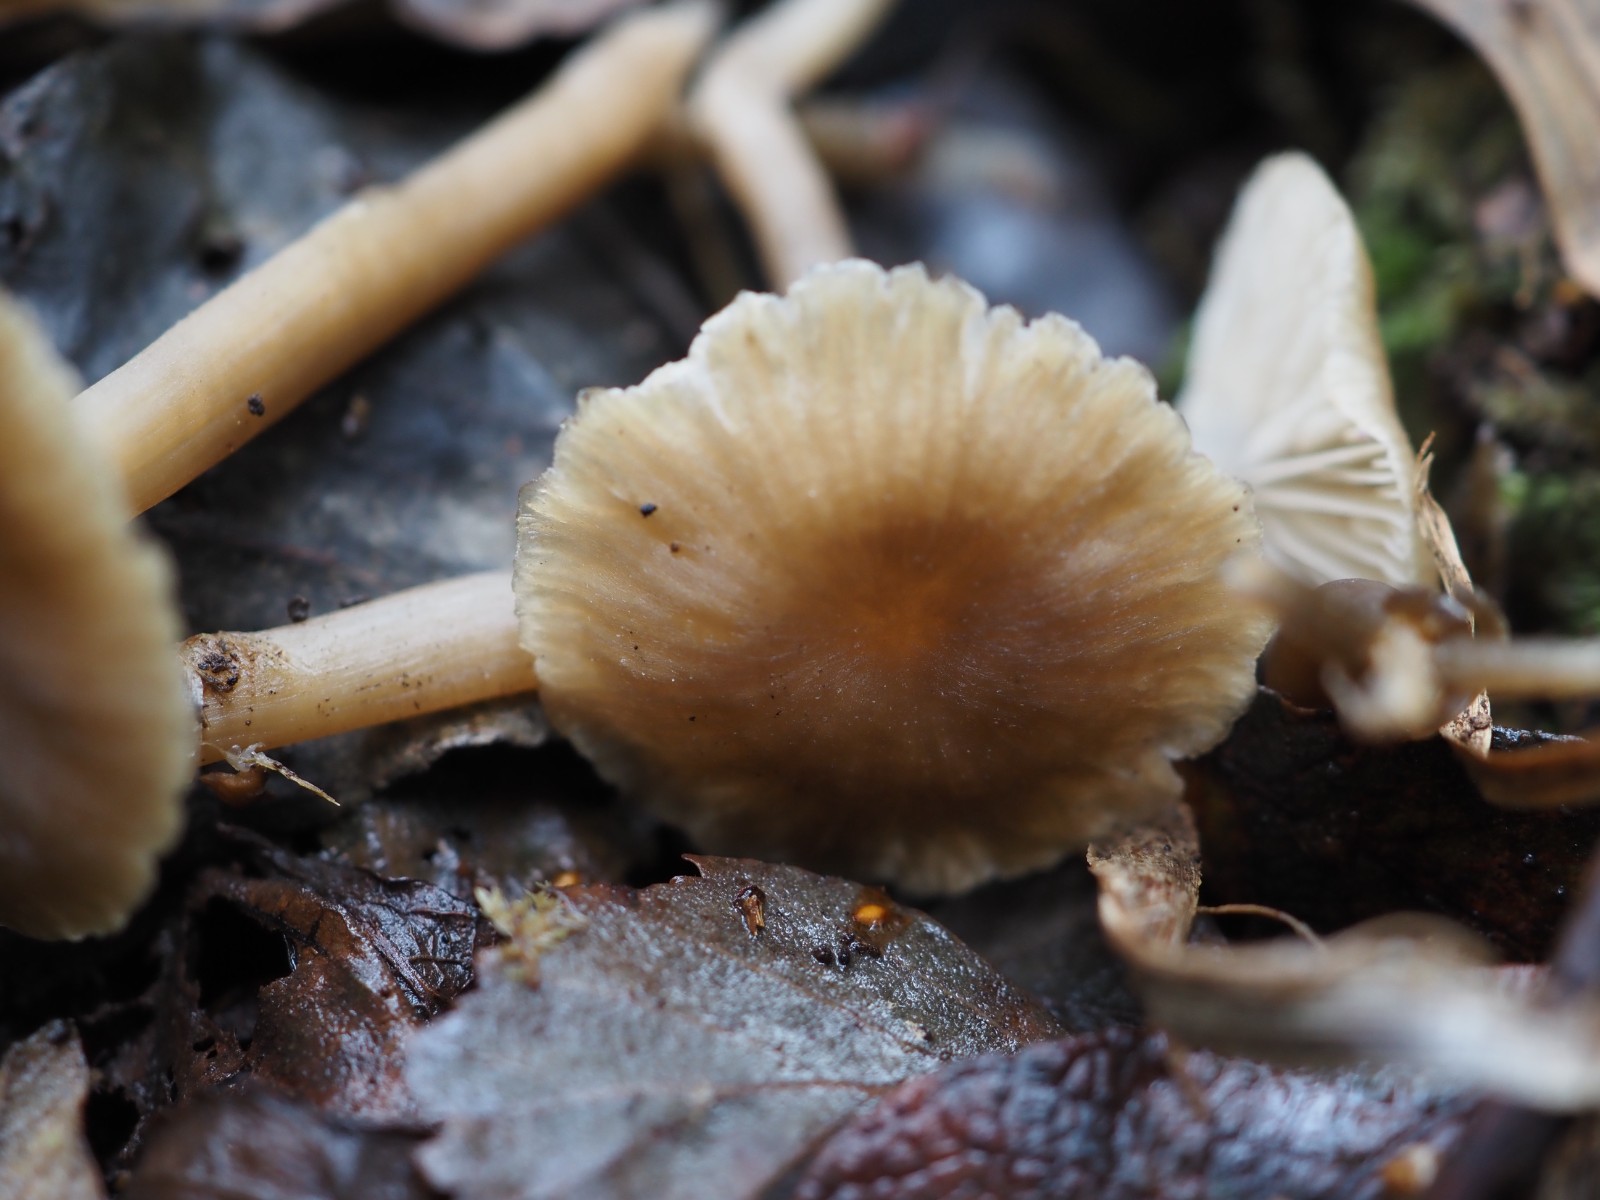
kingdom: Fungi
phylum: Basidiomycota
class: Agaricomycetes
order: Agaricales
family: Entolomataceae
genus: Entoloma
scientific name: Entoloma politum
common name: poleret rødblad
